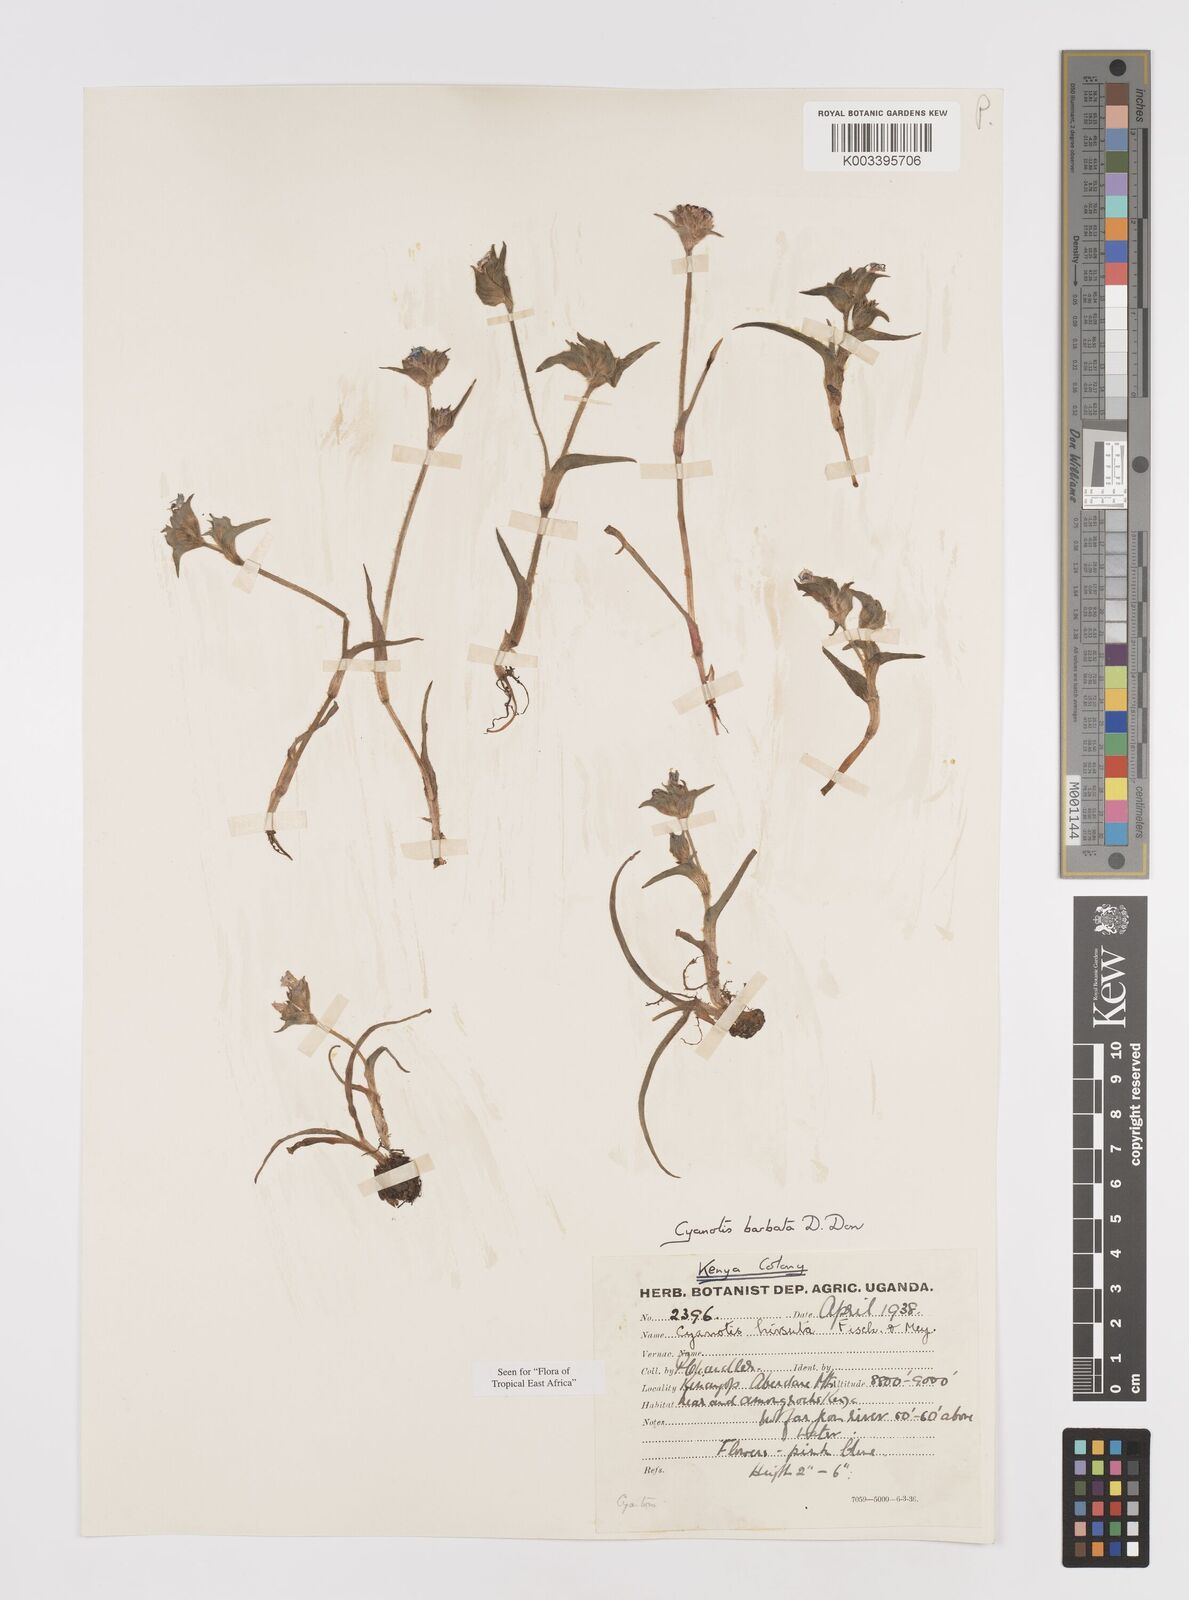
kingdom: Plantae
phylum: Tracheophyta
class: Liliopsida
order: Commelinales
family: Commelinaceae
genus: Cyanotis
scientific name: Cyanotis vaga
